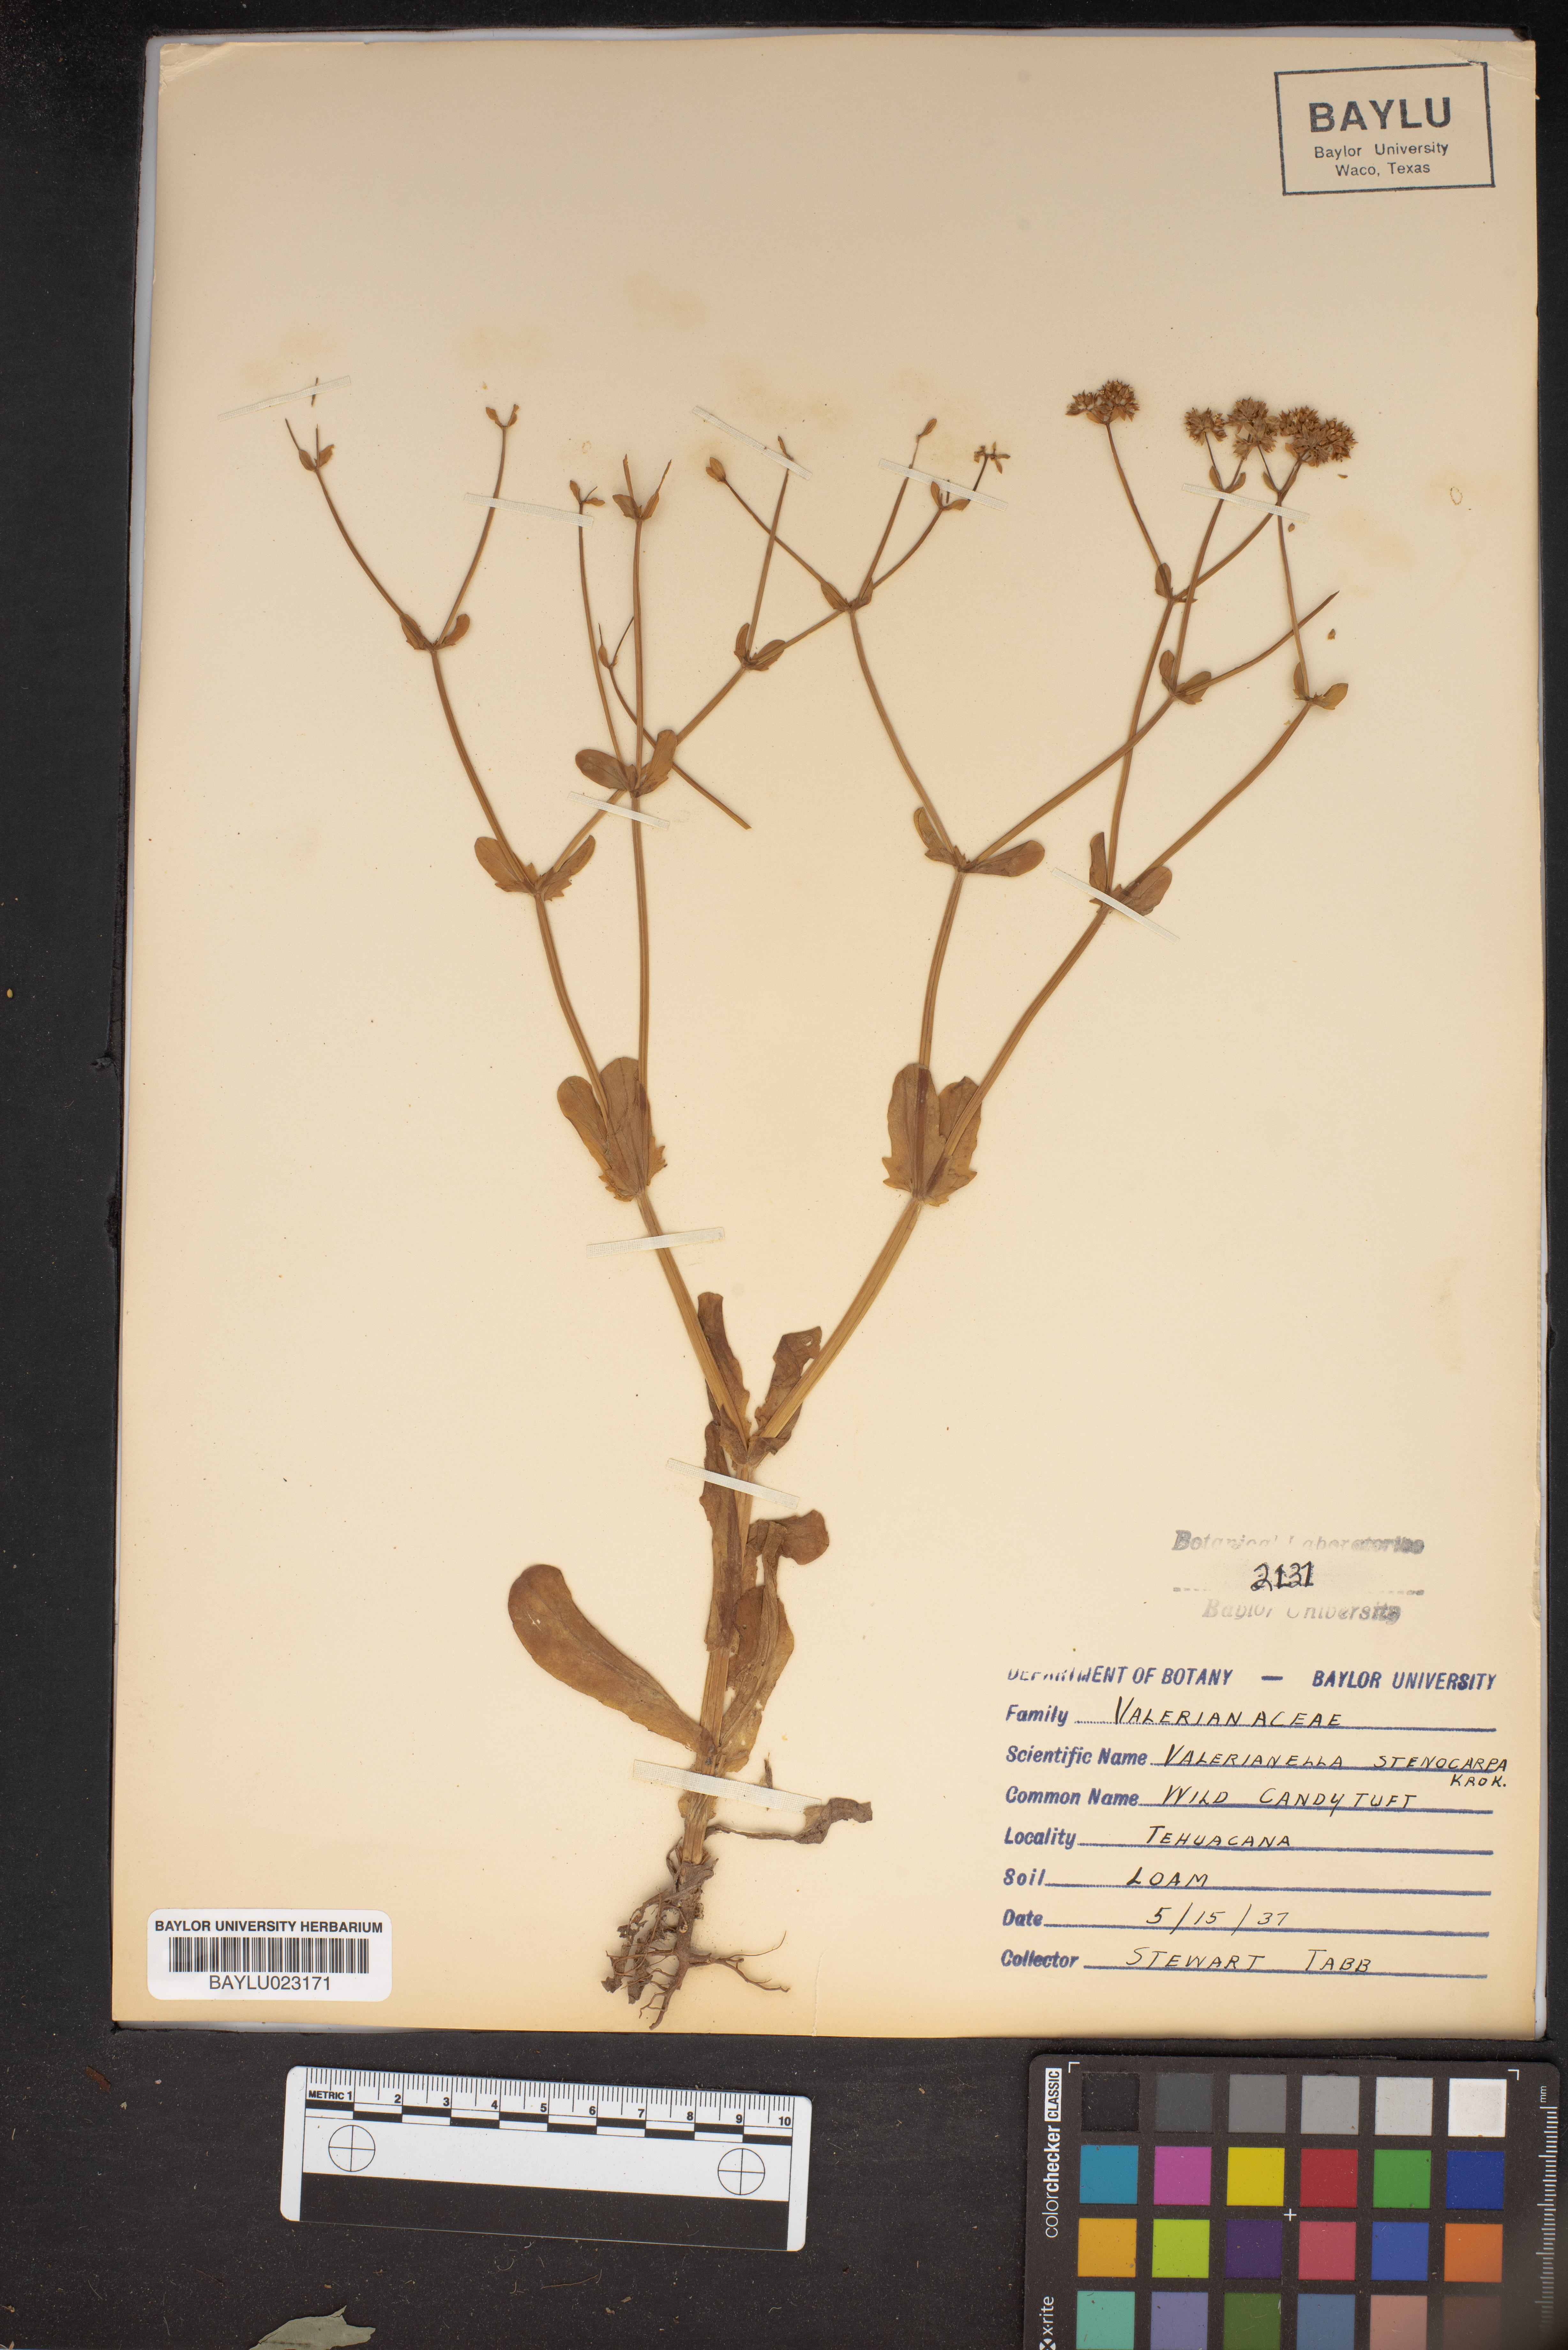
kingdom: Plantae
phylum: Tracheophyta
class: Magnoliopsida
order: Dipsacales
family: Caprifoliaceae
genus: Valerianella
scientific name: Valerianella stenocarpa
